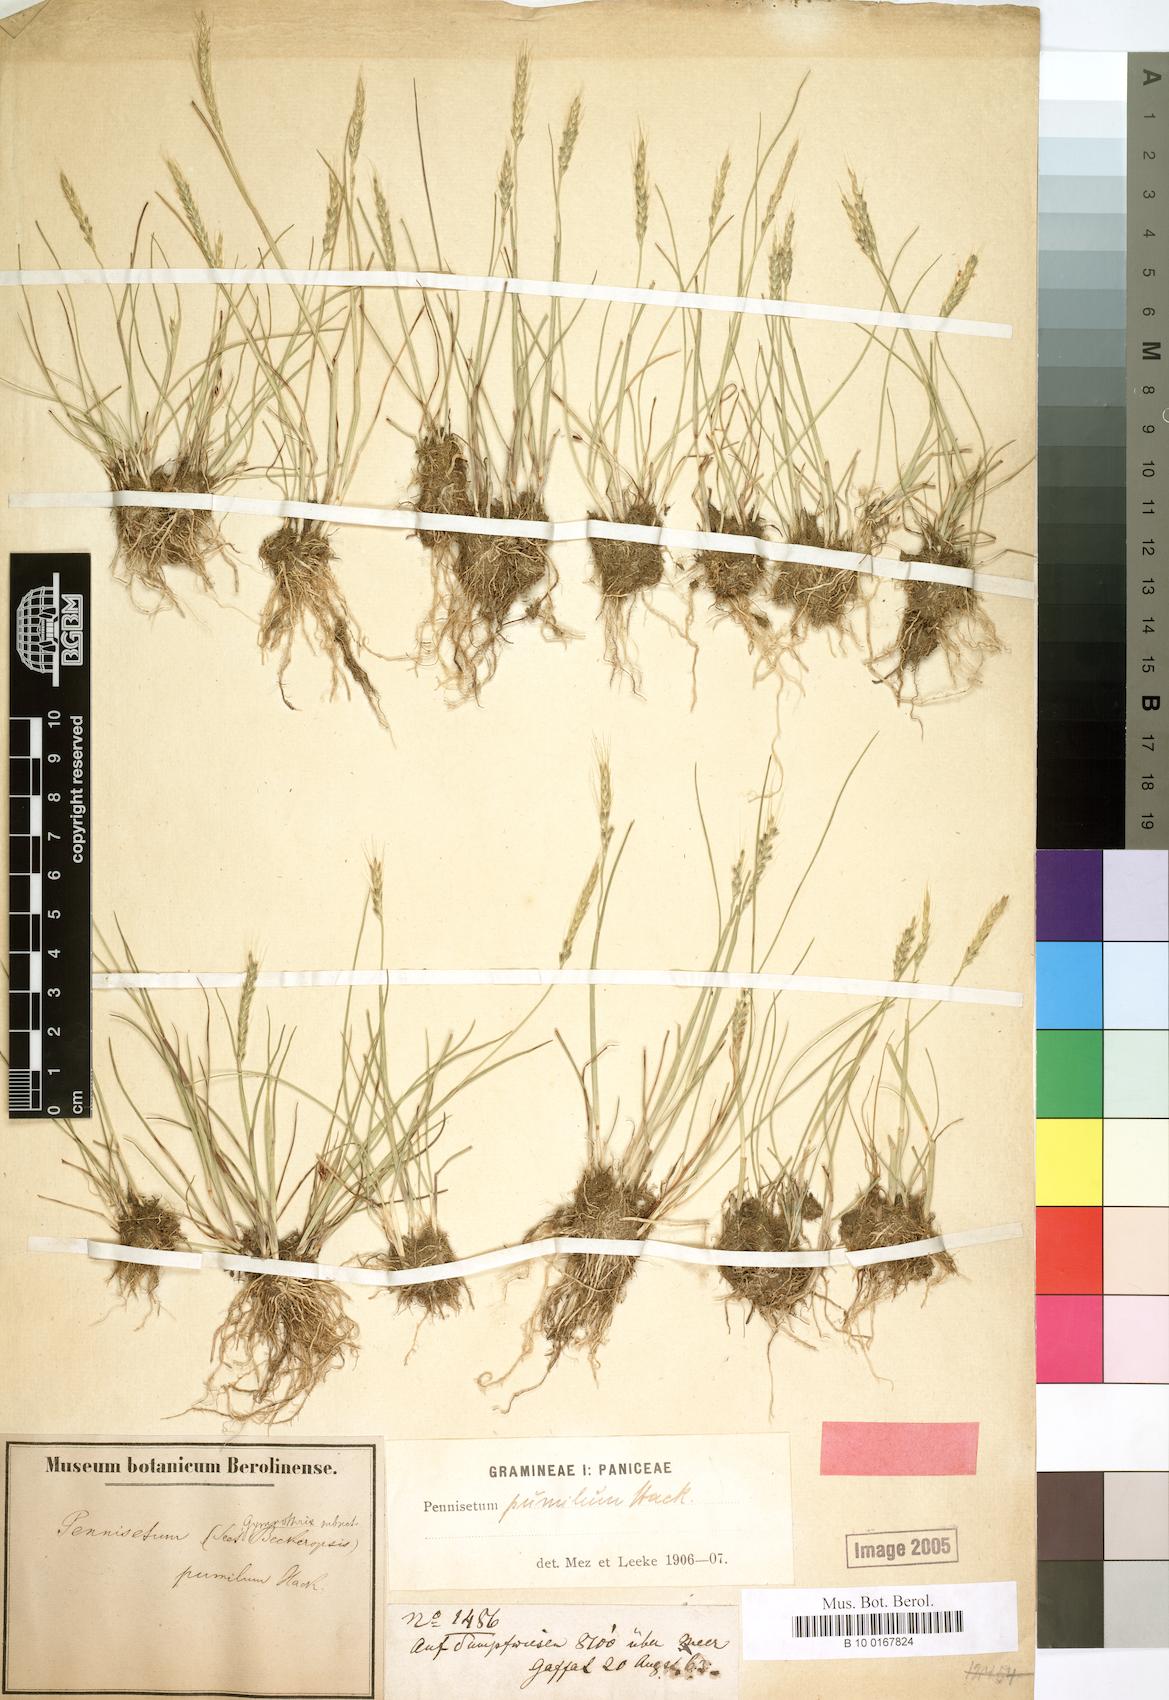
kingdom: Plantae
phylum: Tracheophyta
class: Liliopsida
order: Poales
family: Poaceae
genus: Cenchrus
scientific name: Cenchrus Pennisetum pumilum
